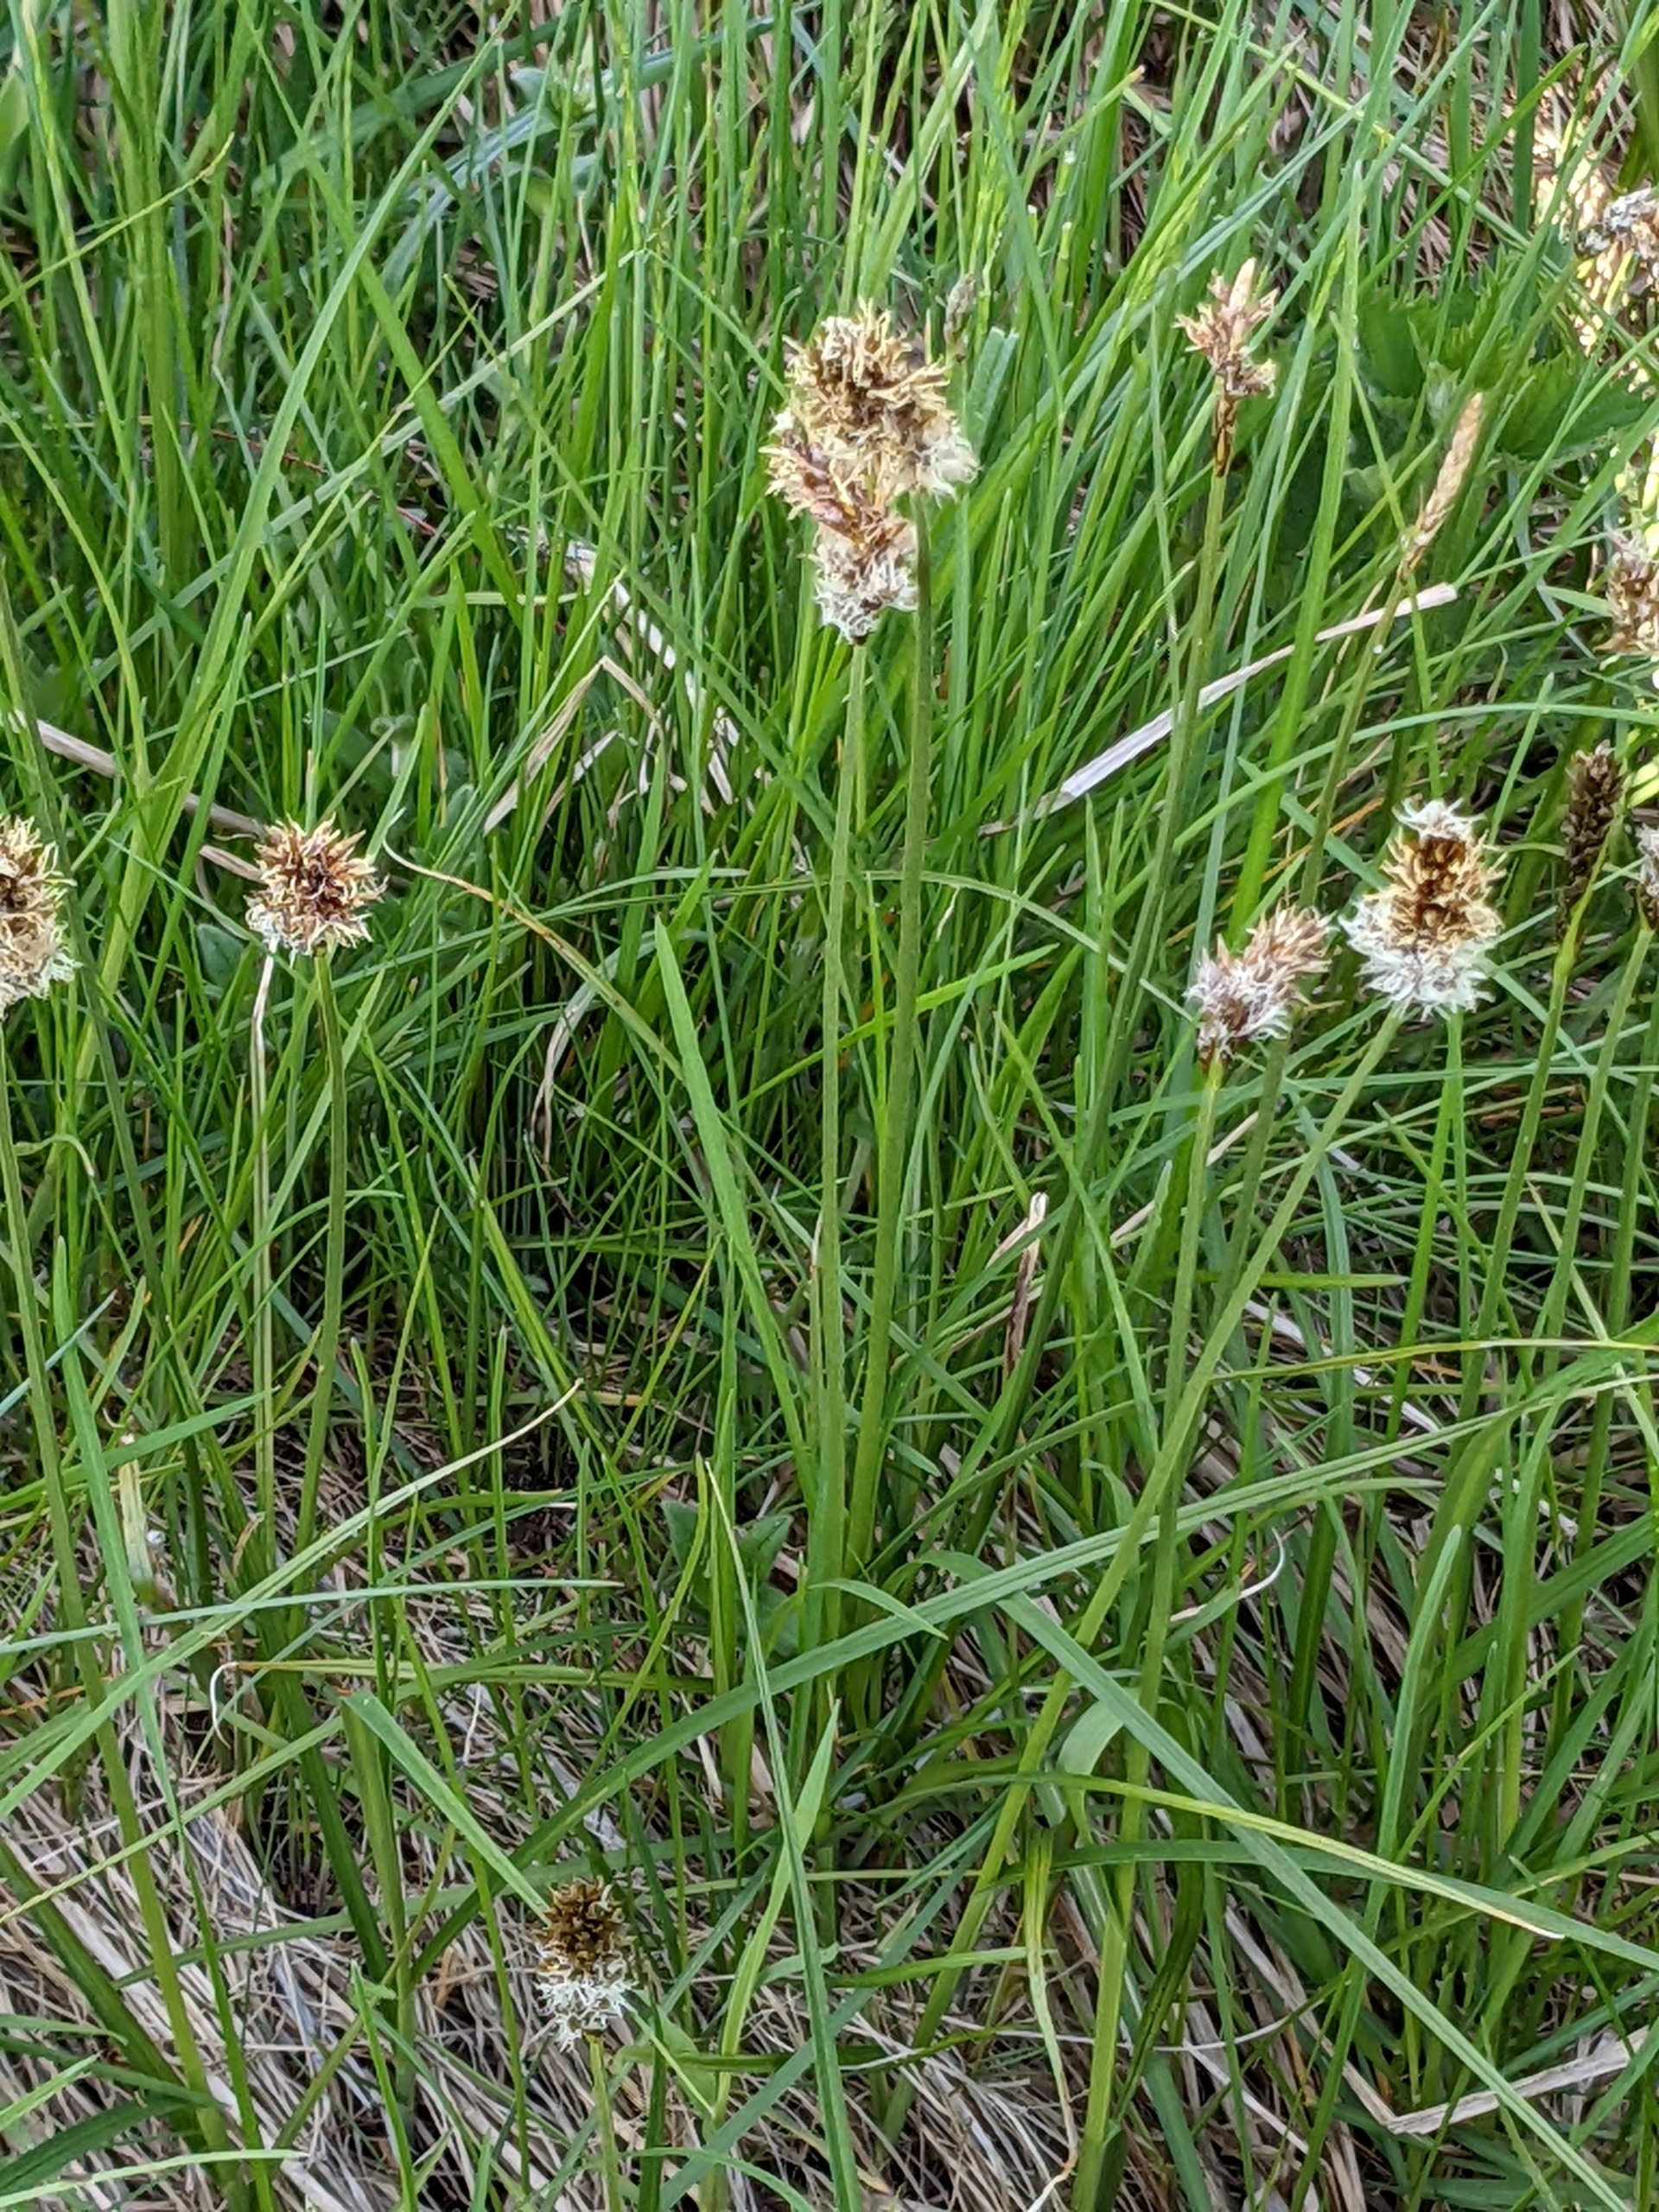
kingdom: Plantae
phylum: Tracheophyta
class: Liliopsida
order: Poales
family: Cyperaceae
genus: Carex
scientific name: Carex disticha
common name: Toradet star
